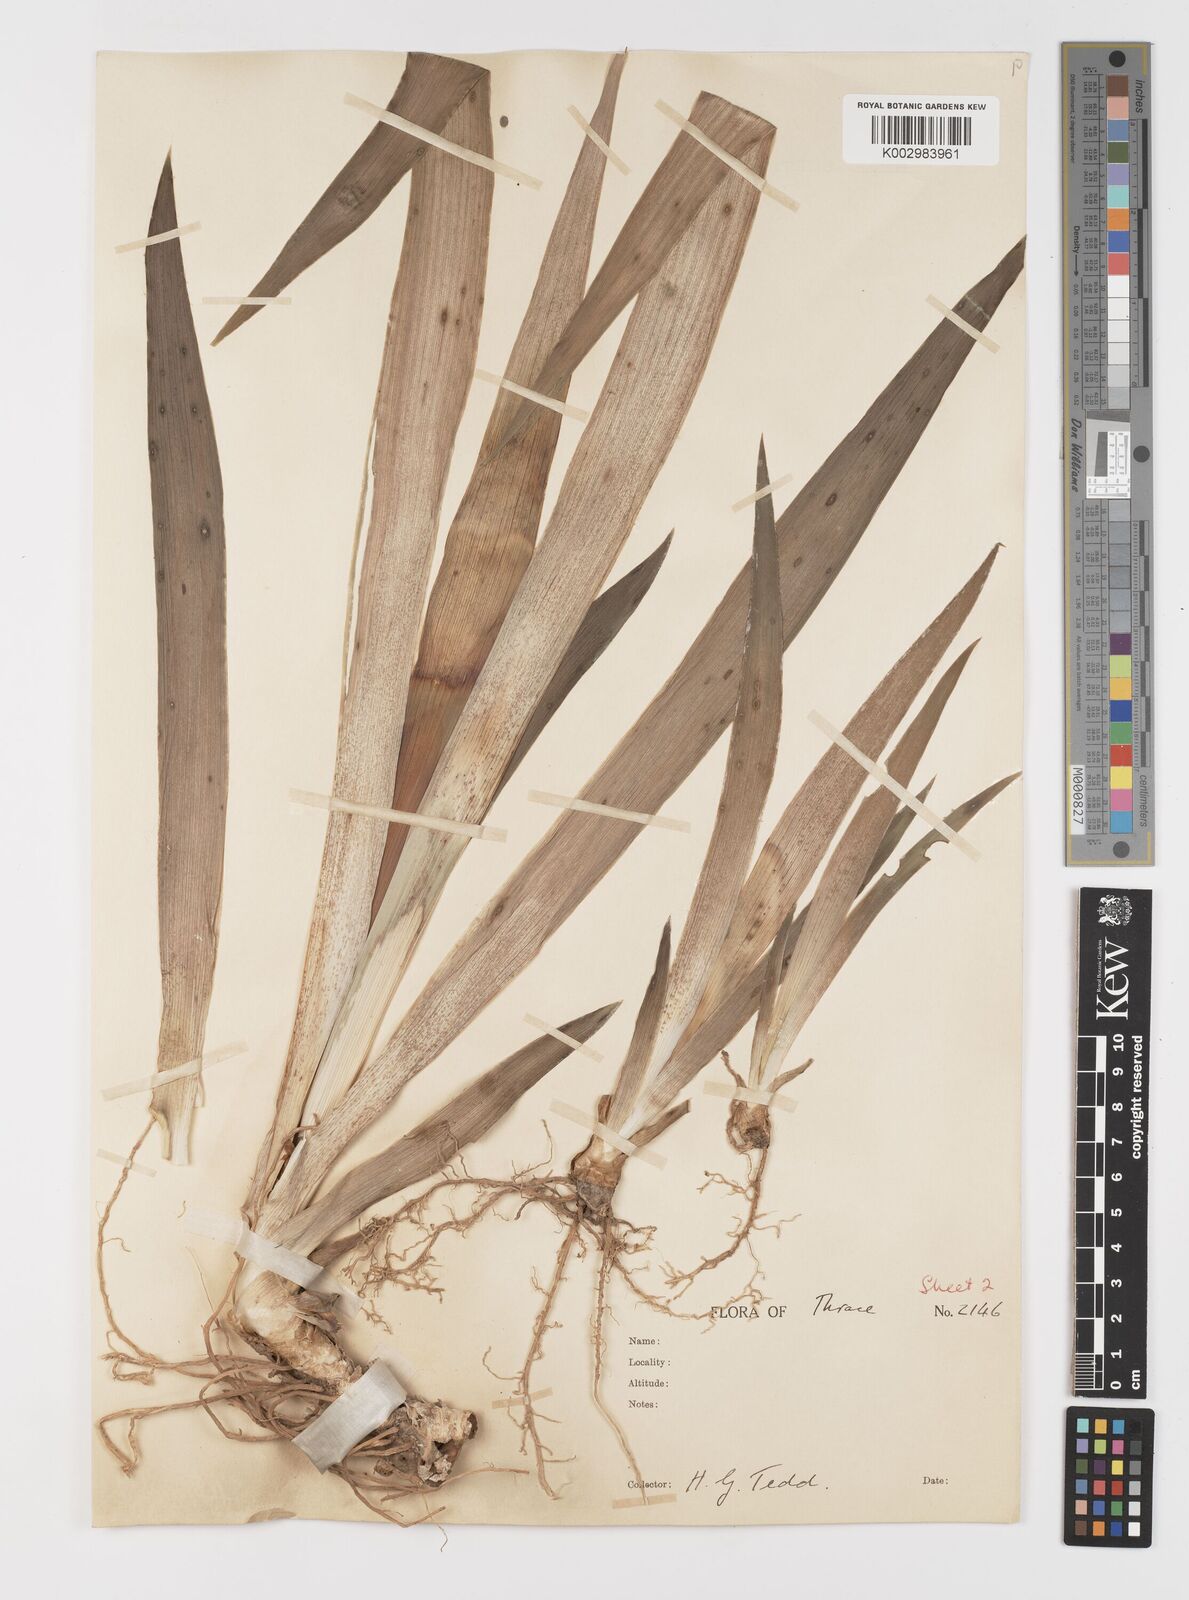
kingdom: Plantae
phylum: Tracheophyta
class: Liliopsida
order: Asparagales
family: Iridaceae
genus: Iris
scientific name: Iris germanica
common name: German iris
